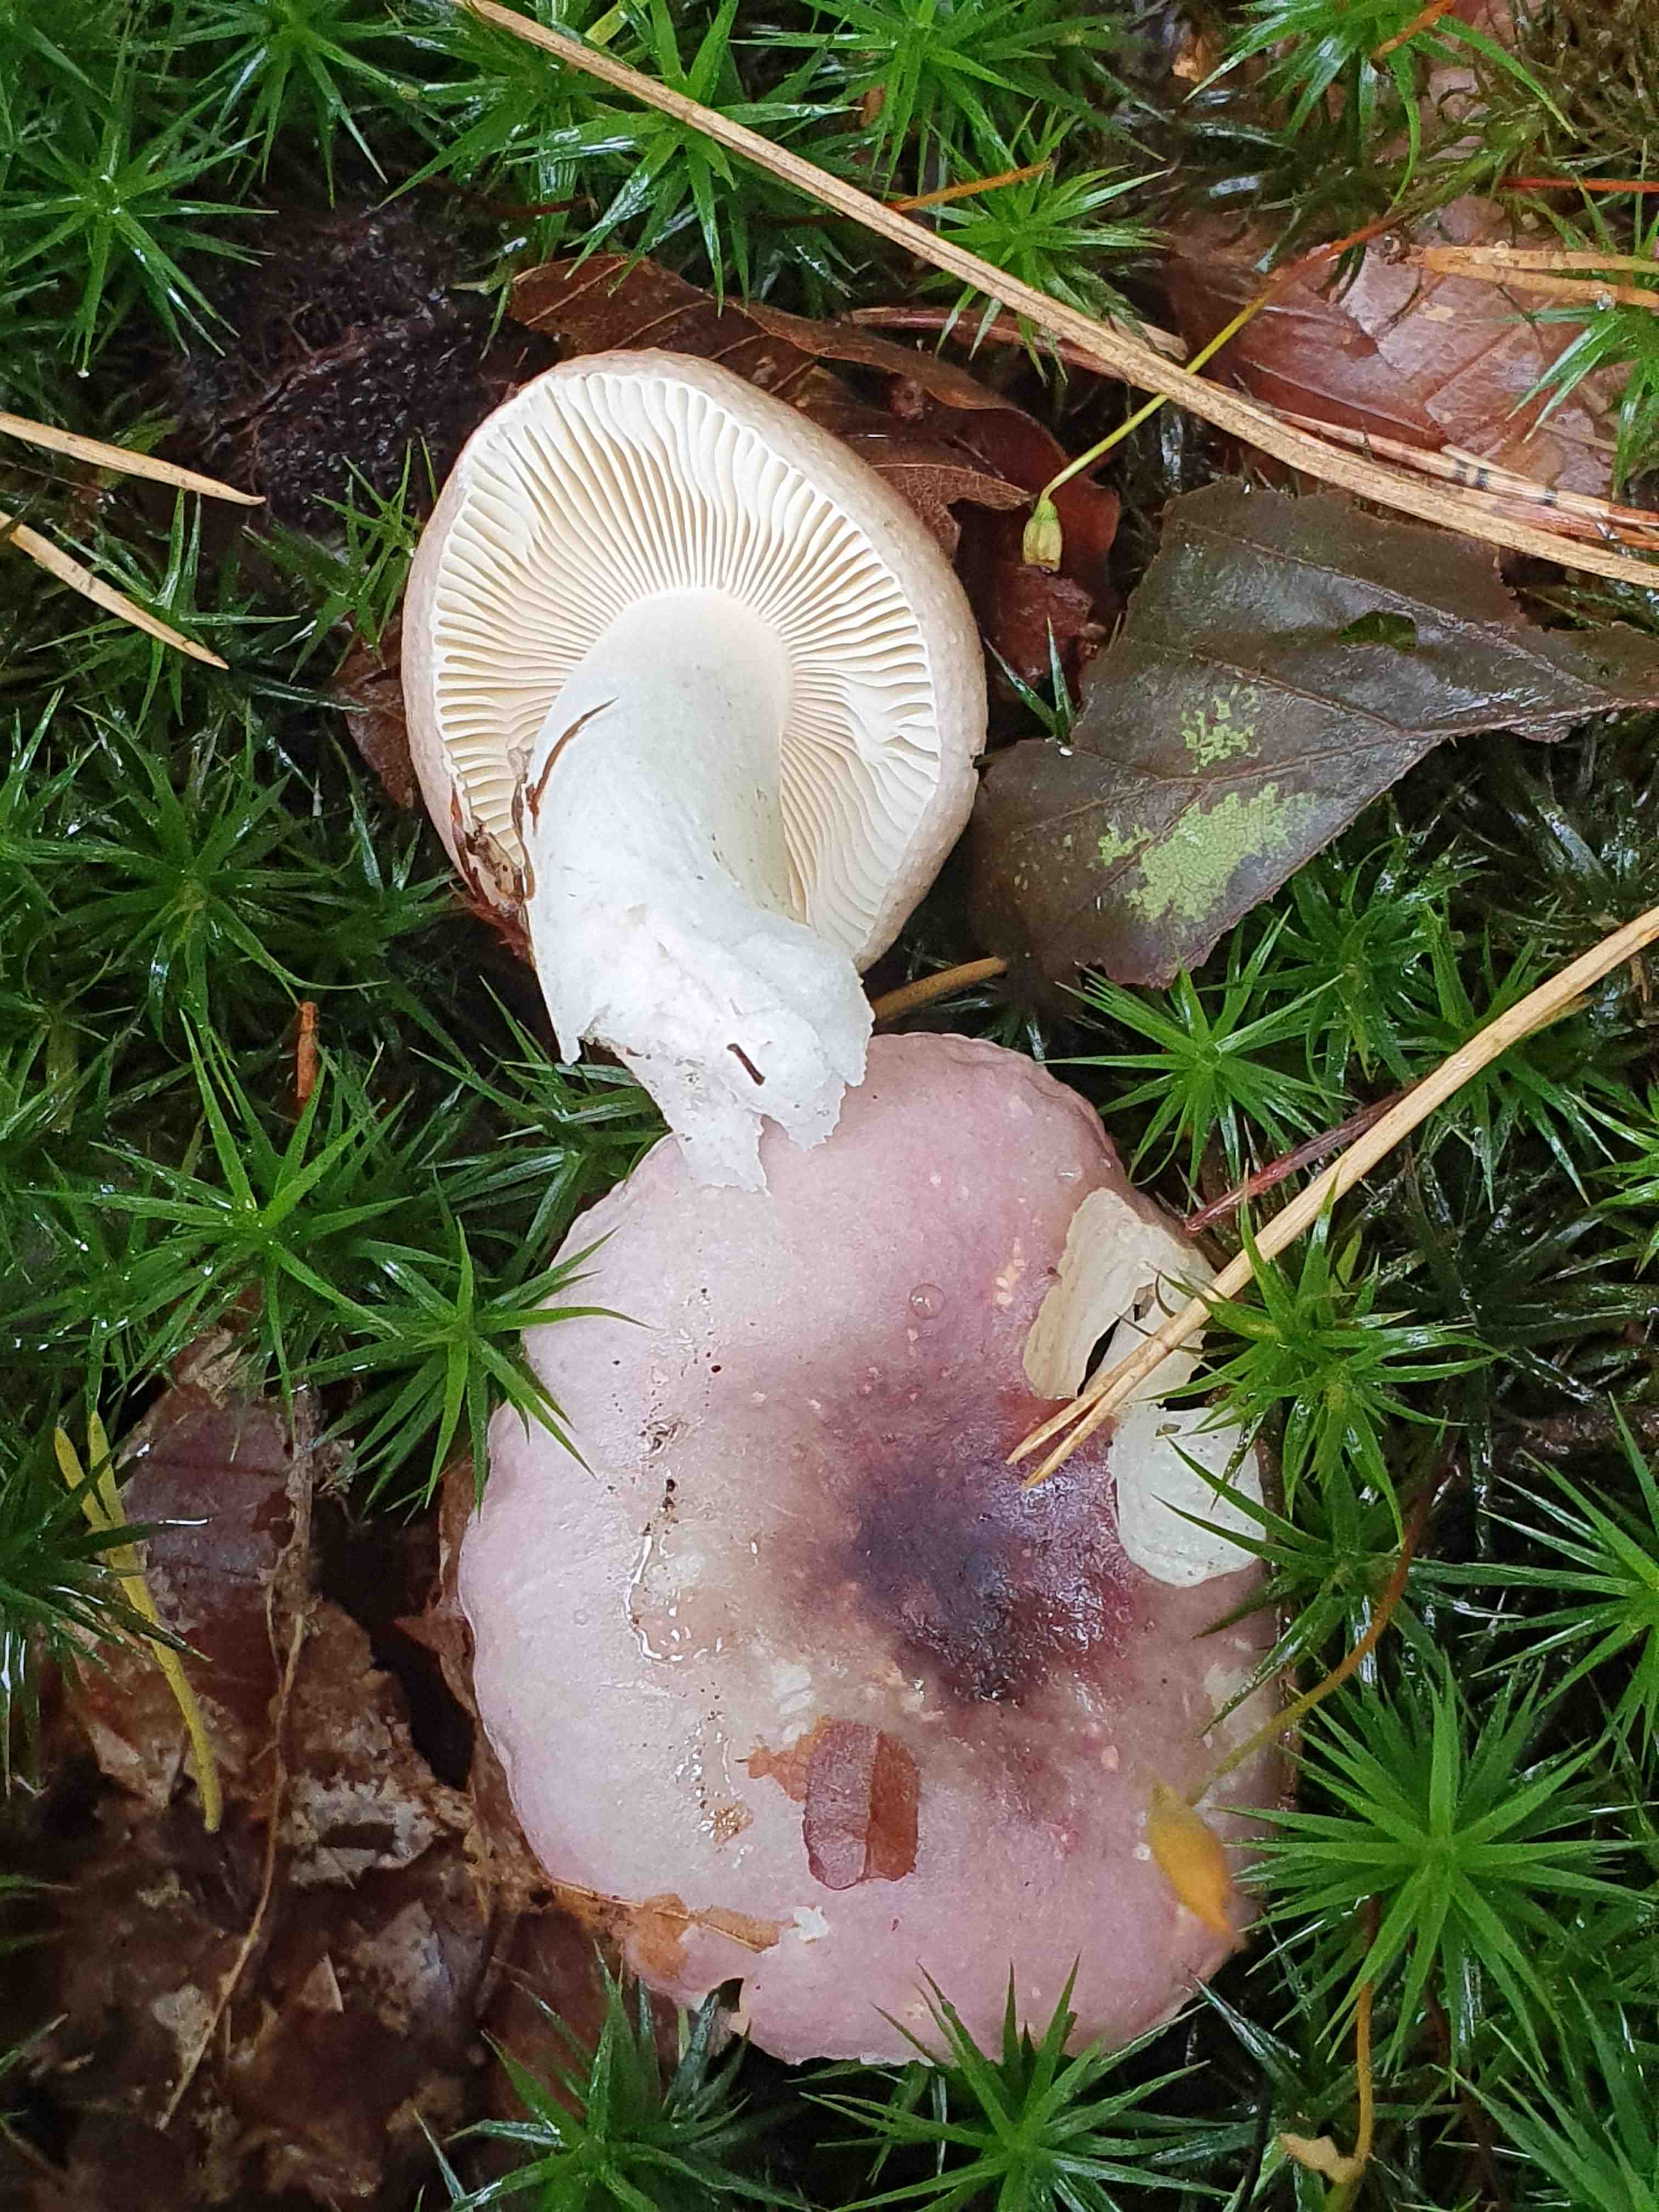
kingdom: Fungi
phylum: Basidiomycota
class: Agaricomycetes
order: Russulales
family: Russulaceae
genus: Russula
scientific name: Russula atrorubens
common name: sortrød skørhat
